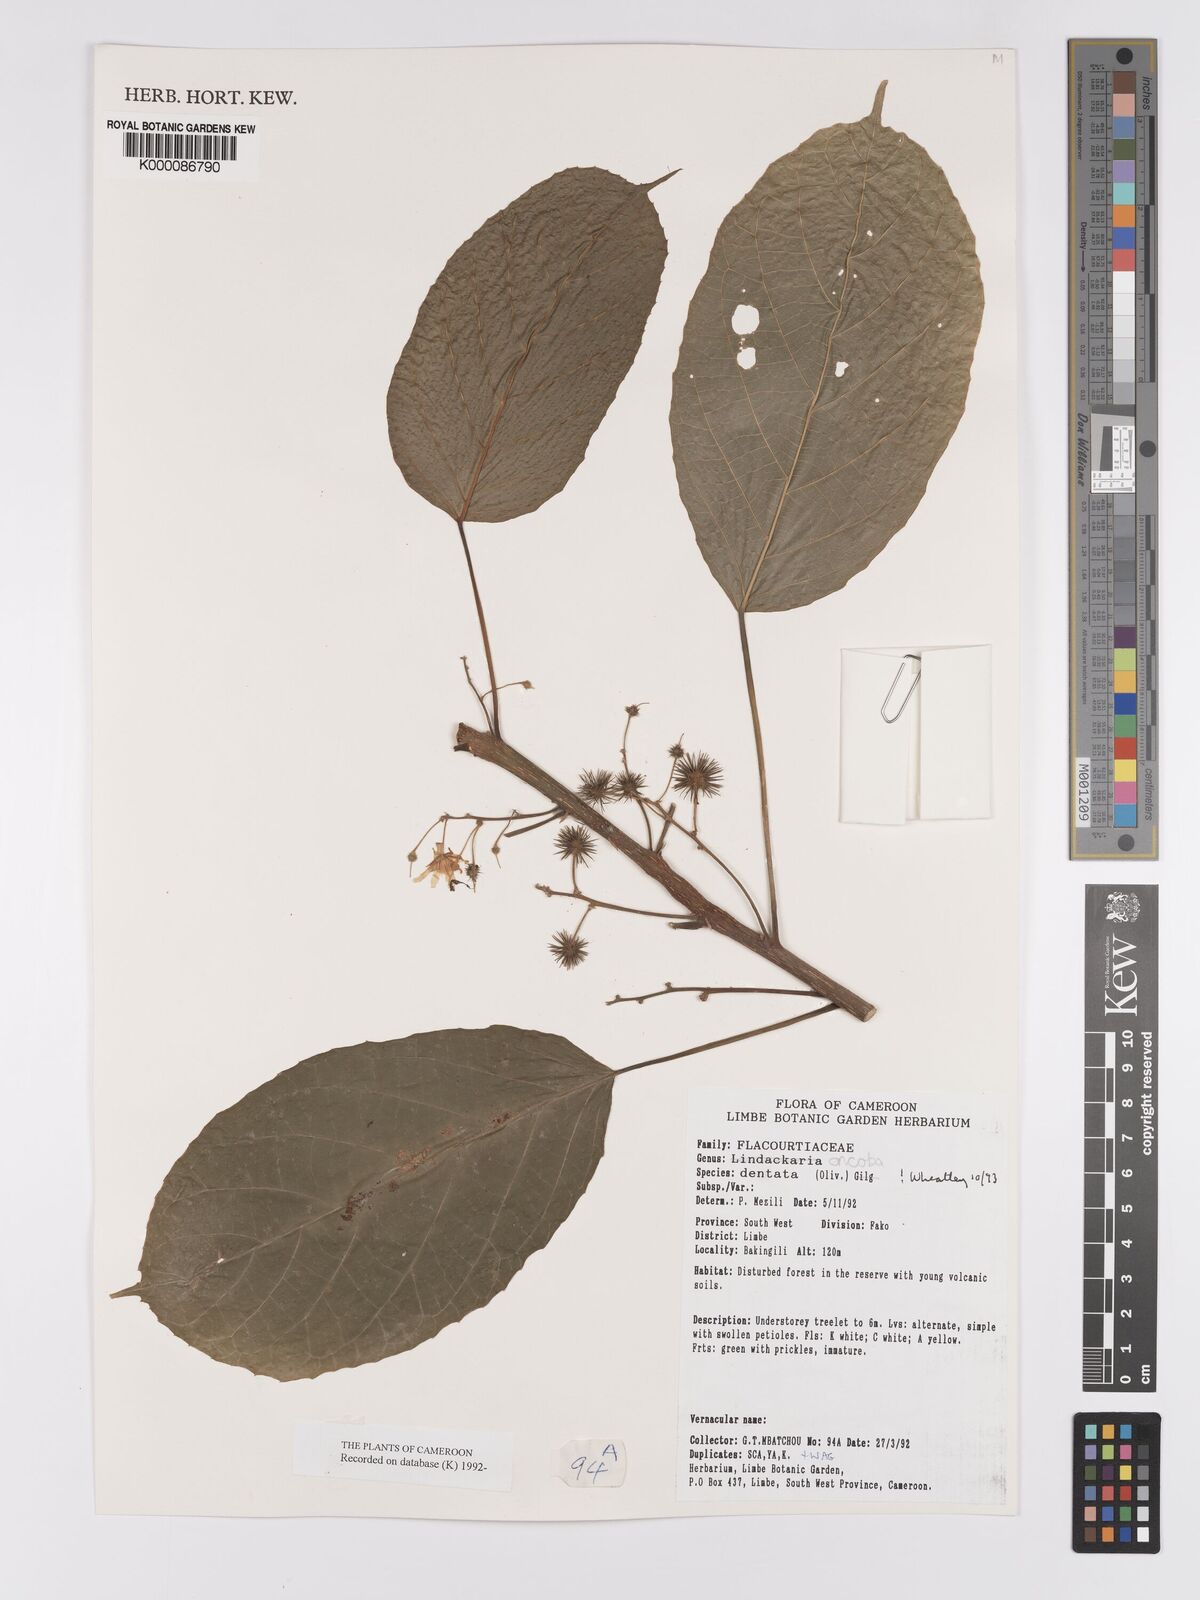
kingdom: Plantae
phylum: Tracheophyta
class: Magnoliopsida
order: Malpighiales
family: Achariaceae
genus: Lindackeria
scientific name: Lindackeria dentata
